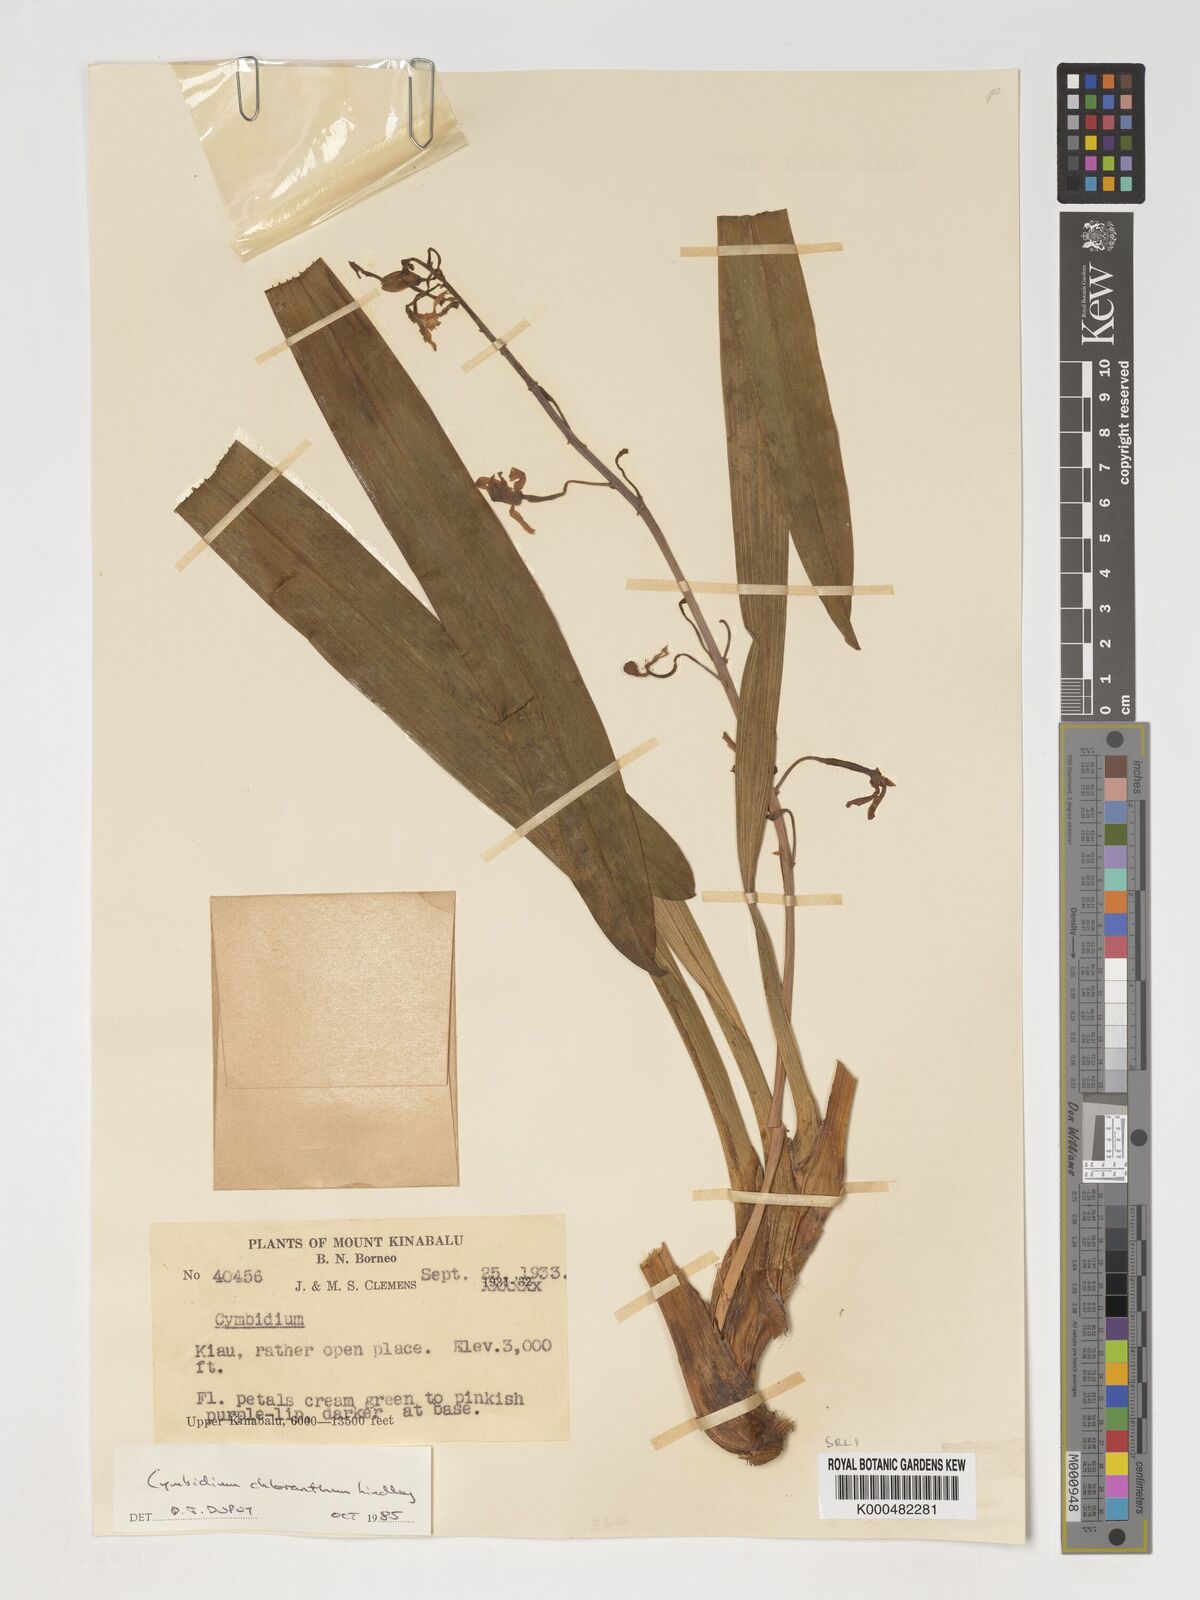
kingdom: Plantae
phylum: Tracheophyta
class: Liliopsida
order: Asparagales
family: Orchidaceae
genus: Cymbidium
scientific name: Cymbidium
